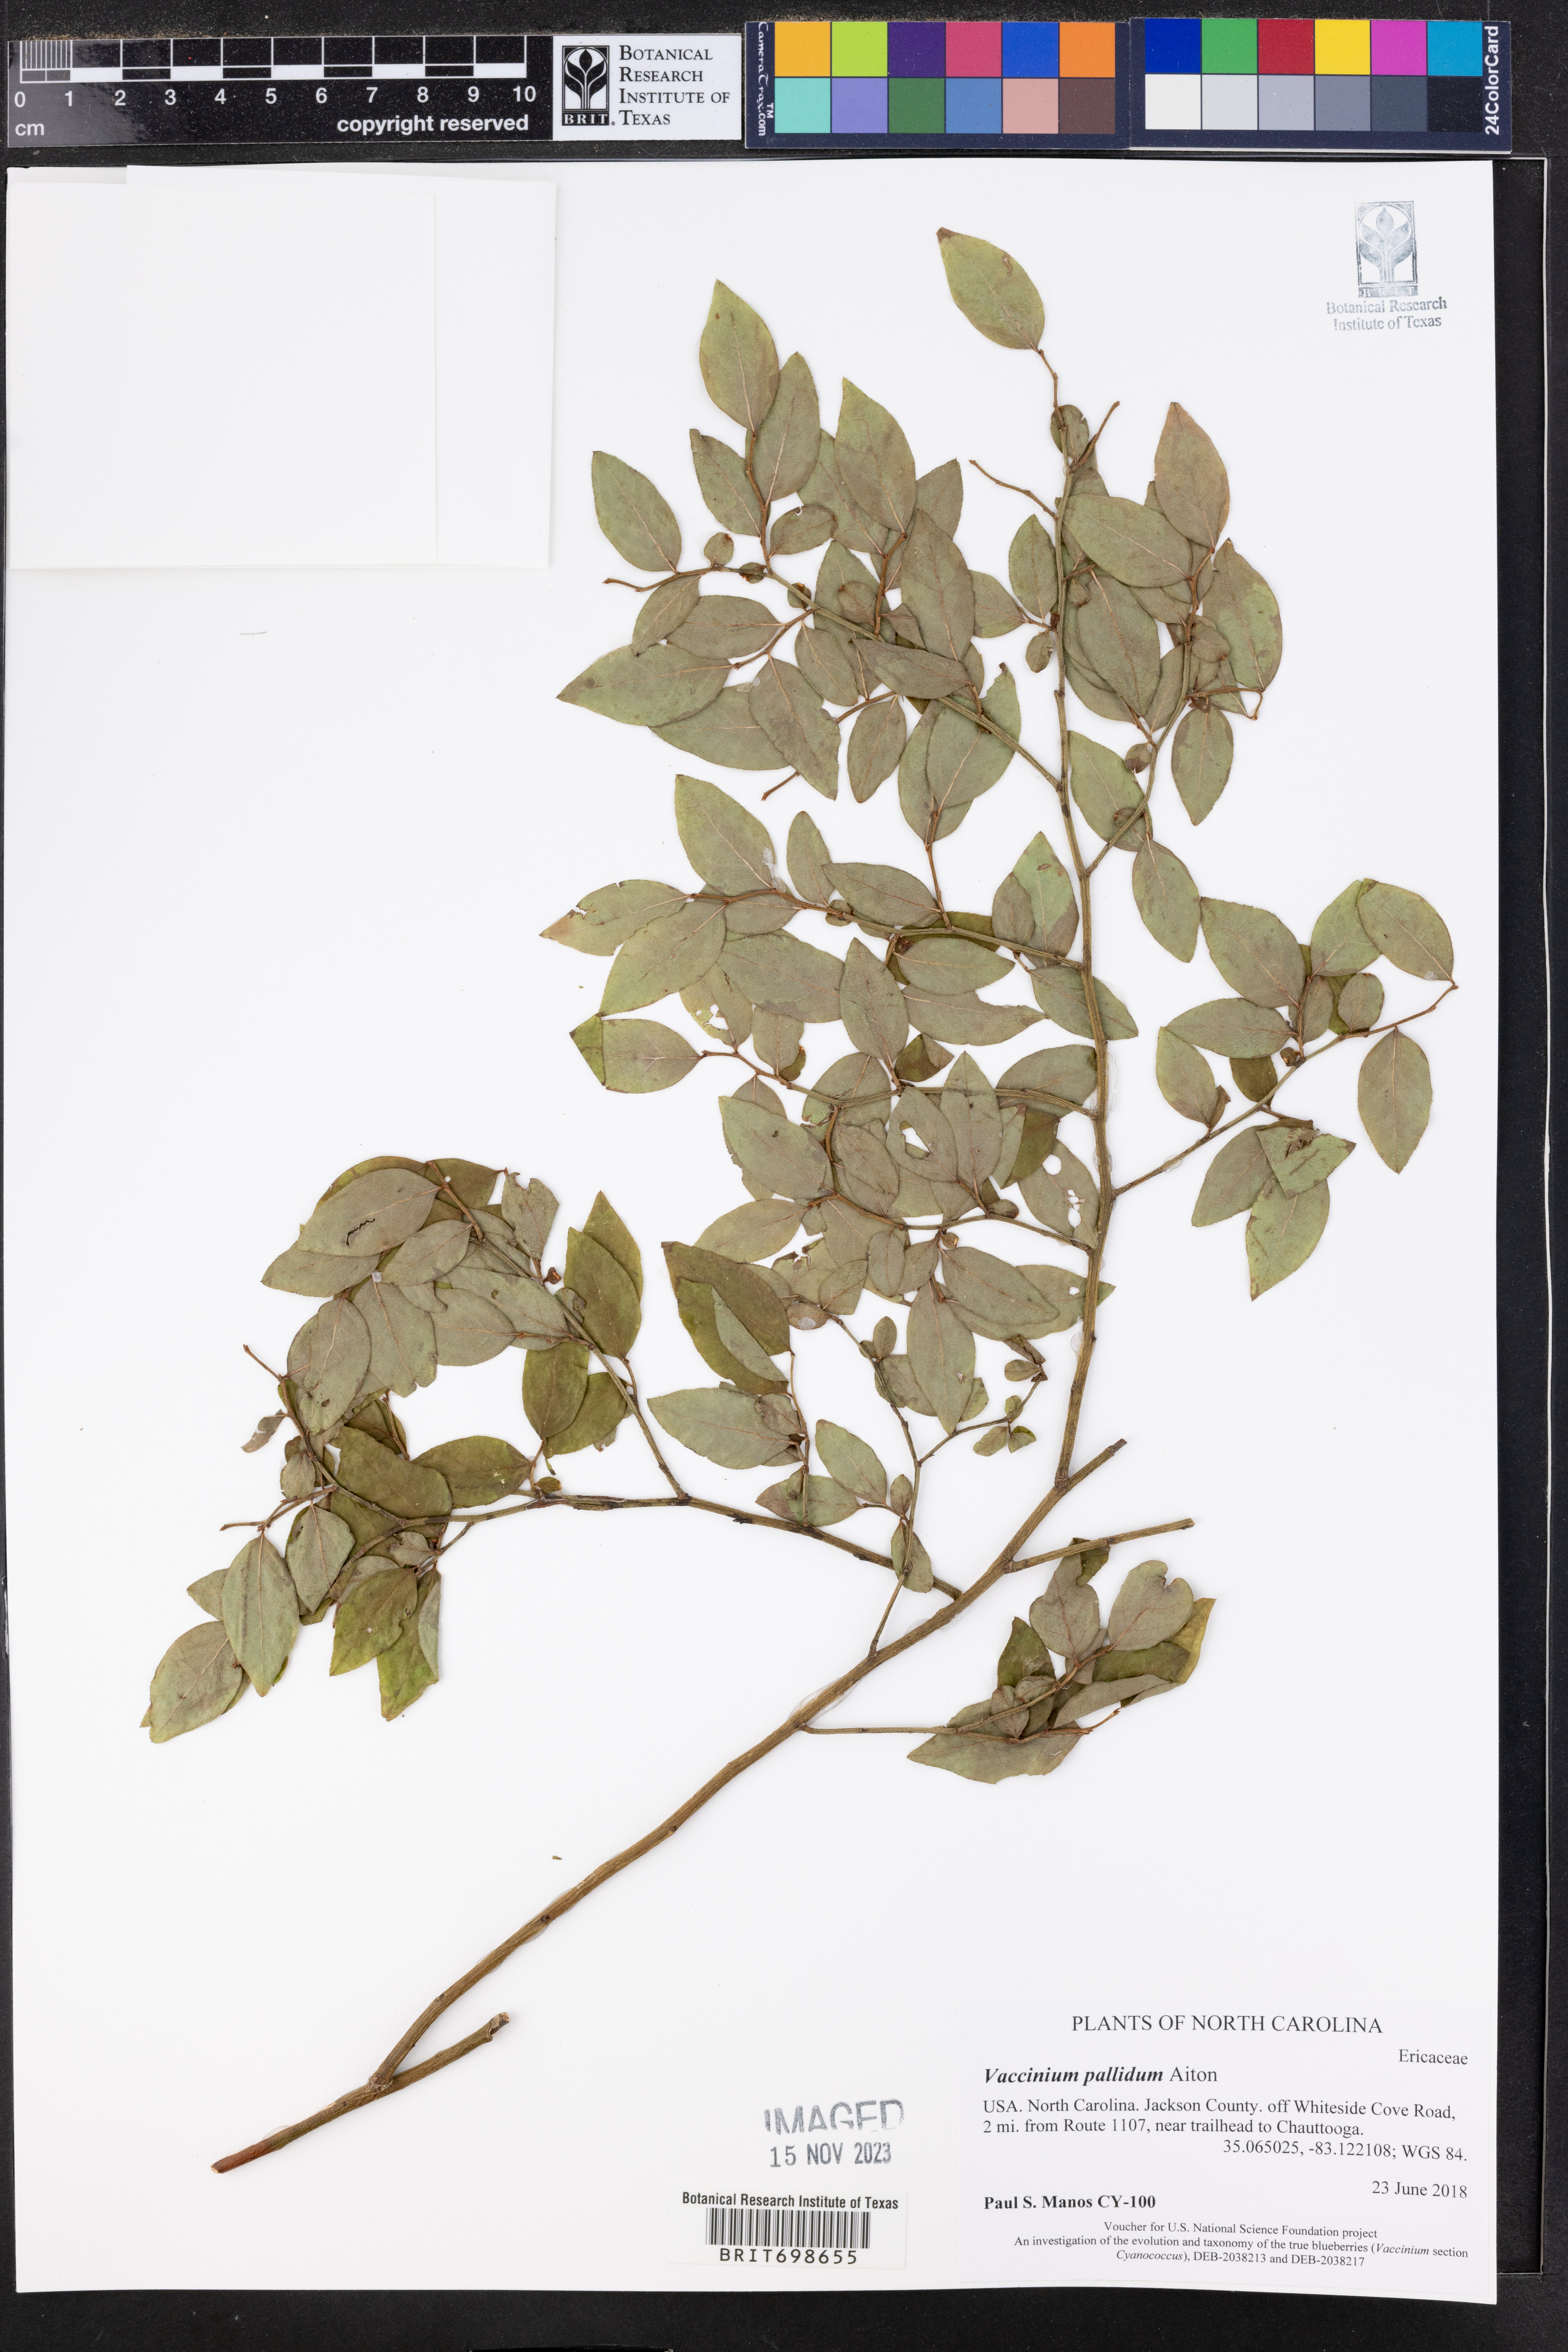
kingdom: Plantae
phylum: Tracheophyta
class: Magnoliopsida
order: Ericales
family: Ericaceae
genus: Vaccinium
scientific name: Vaccinium pallidum
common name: Blue ridge blueberry
